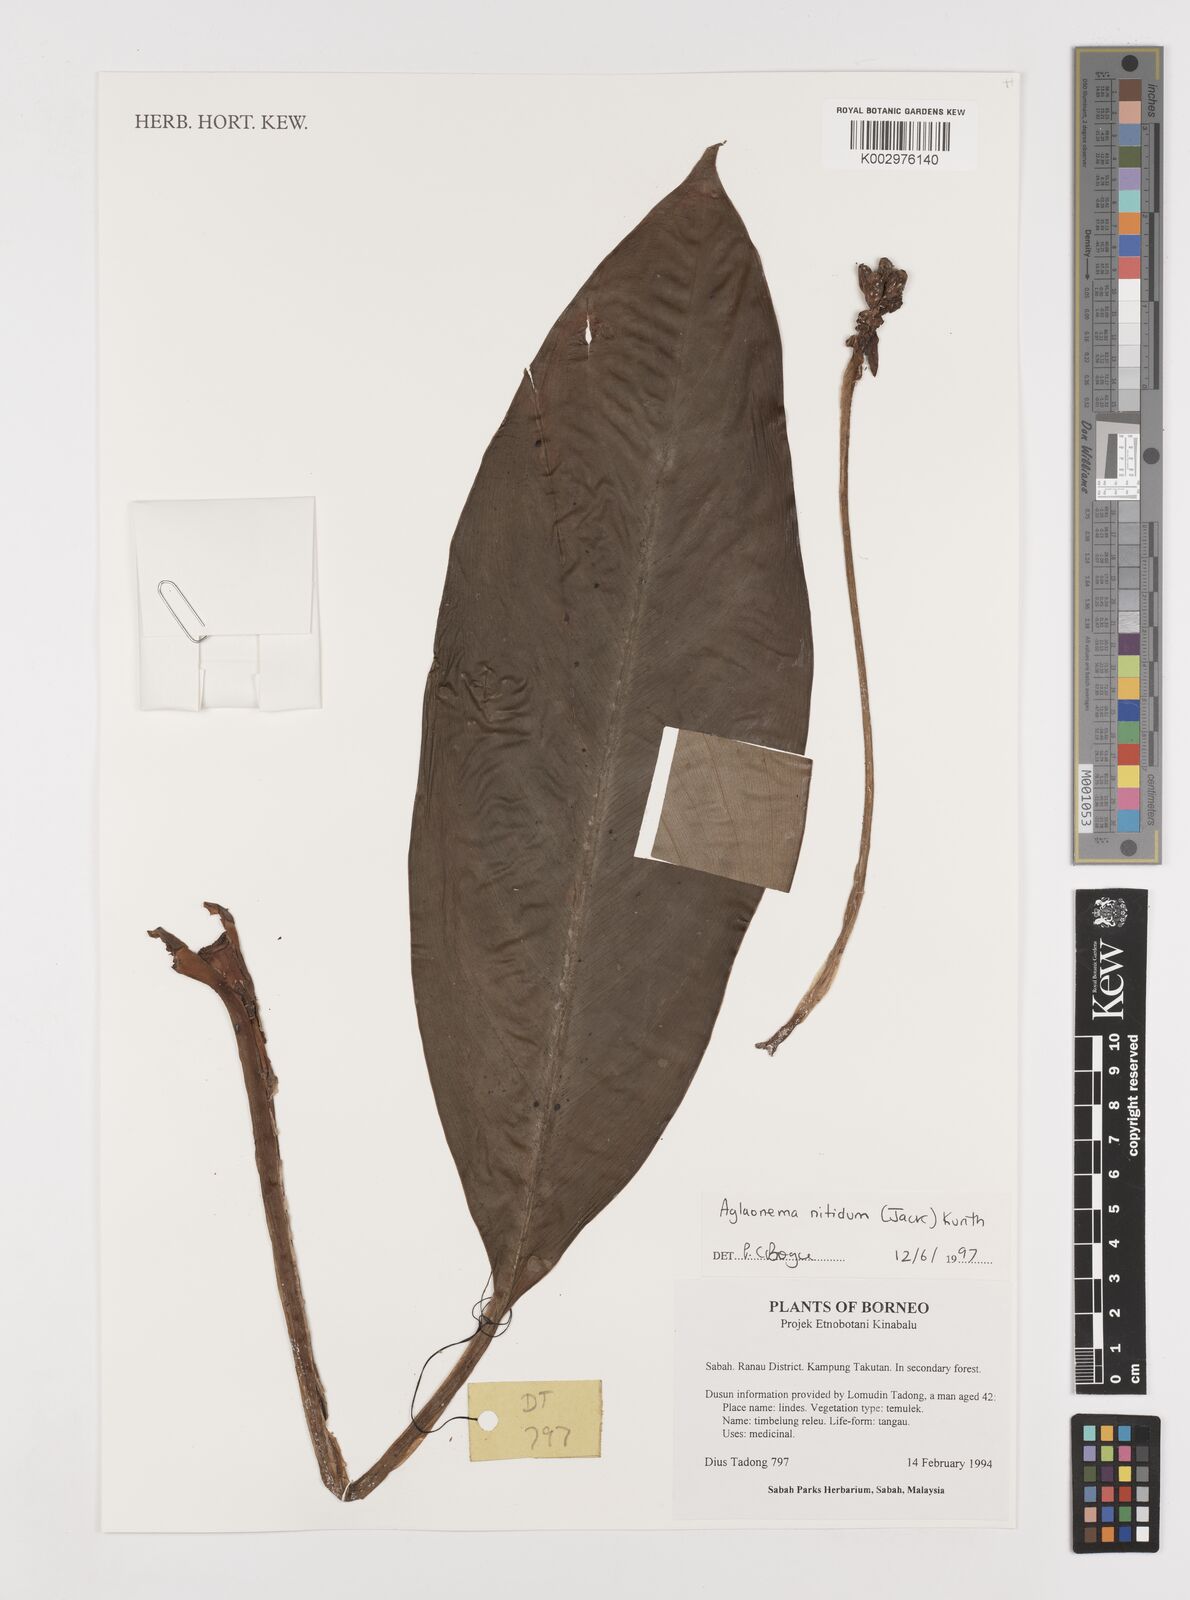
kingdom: Plantae
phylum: Tracheophyta
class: Liliopsida
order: Alismatales
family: Araceae
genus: Aglaonema
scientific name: Aglaonema nitidum
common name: Aglaonema aroid
